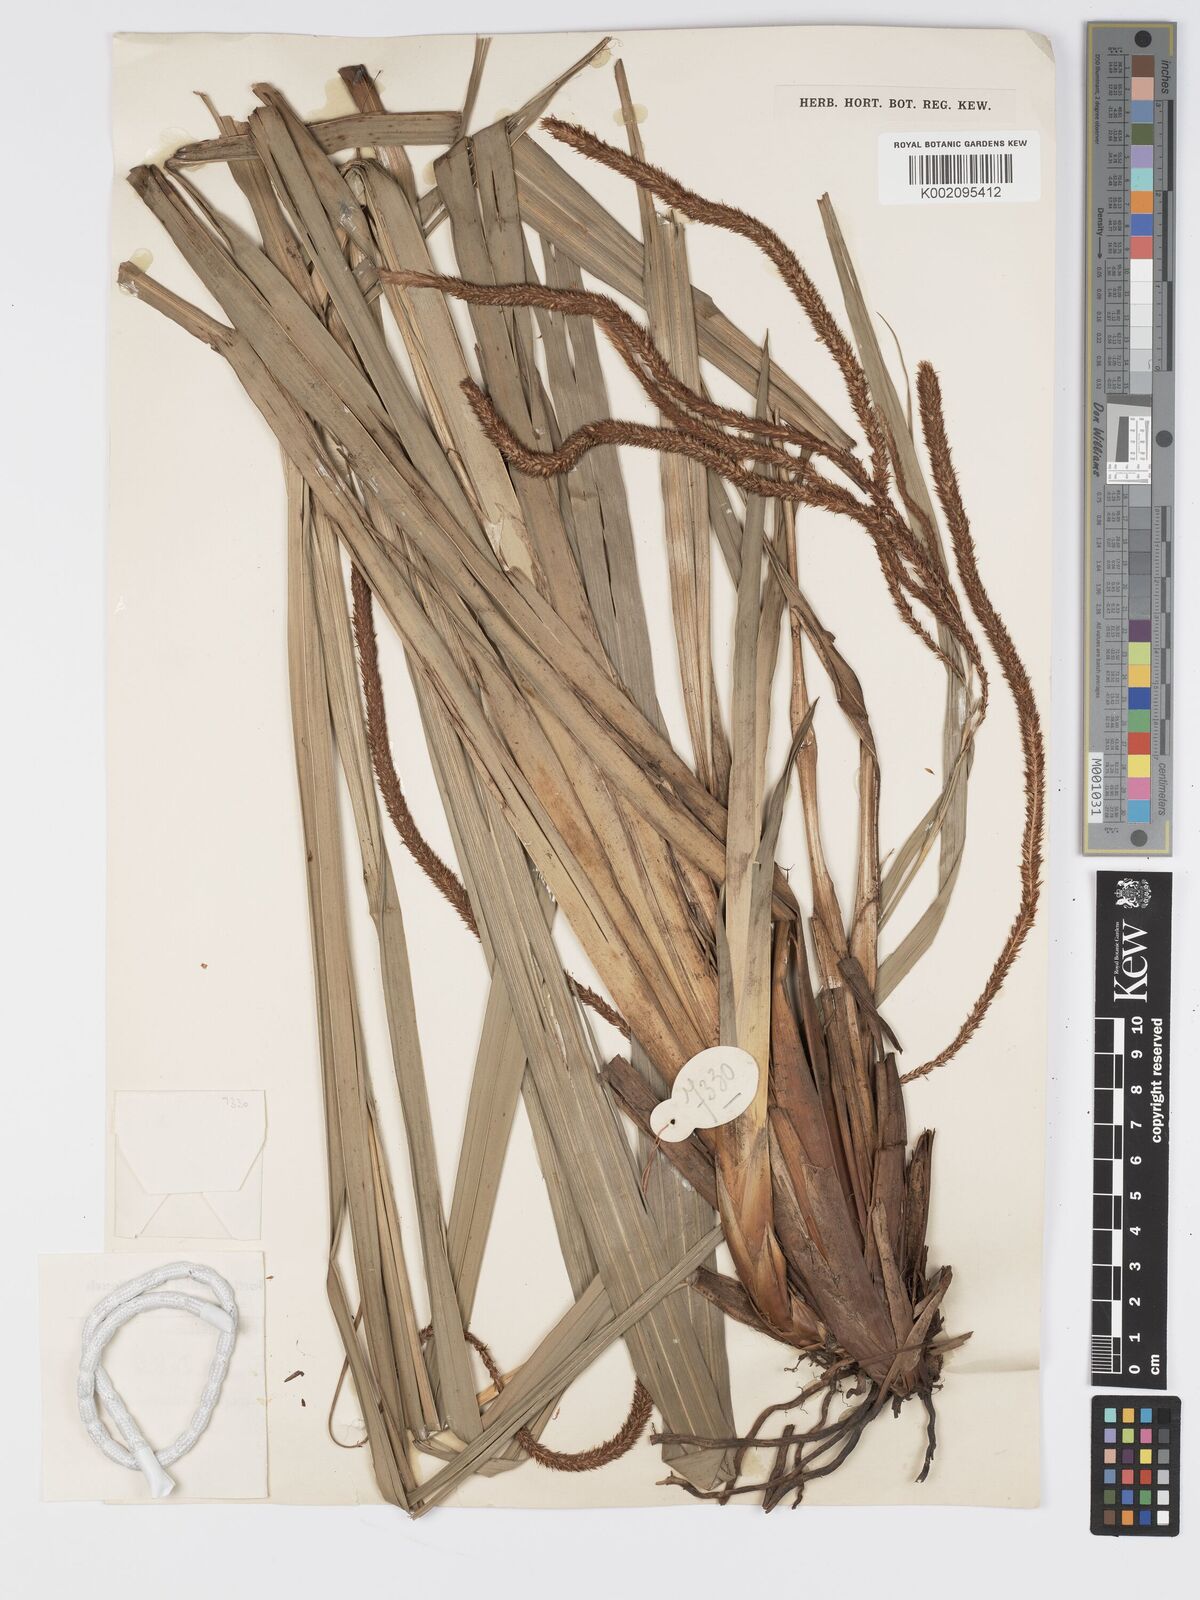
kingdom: Plantae
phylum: Tracheophyta
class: Liliopsida
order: Poales
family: Cyperaceae
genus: Carex
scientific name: Carex petitiana
